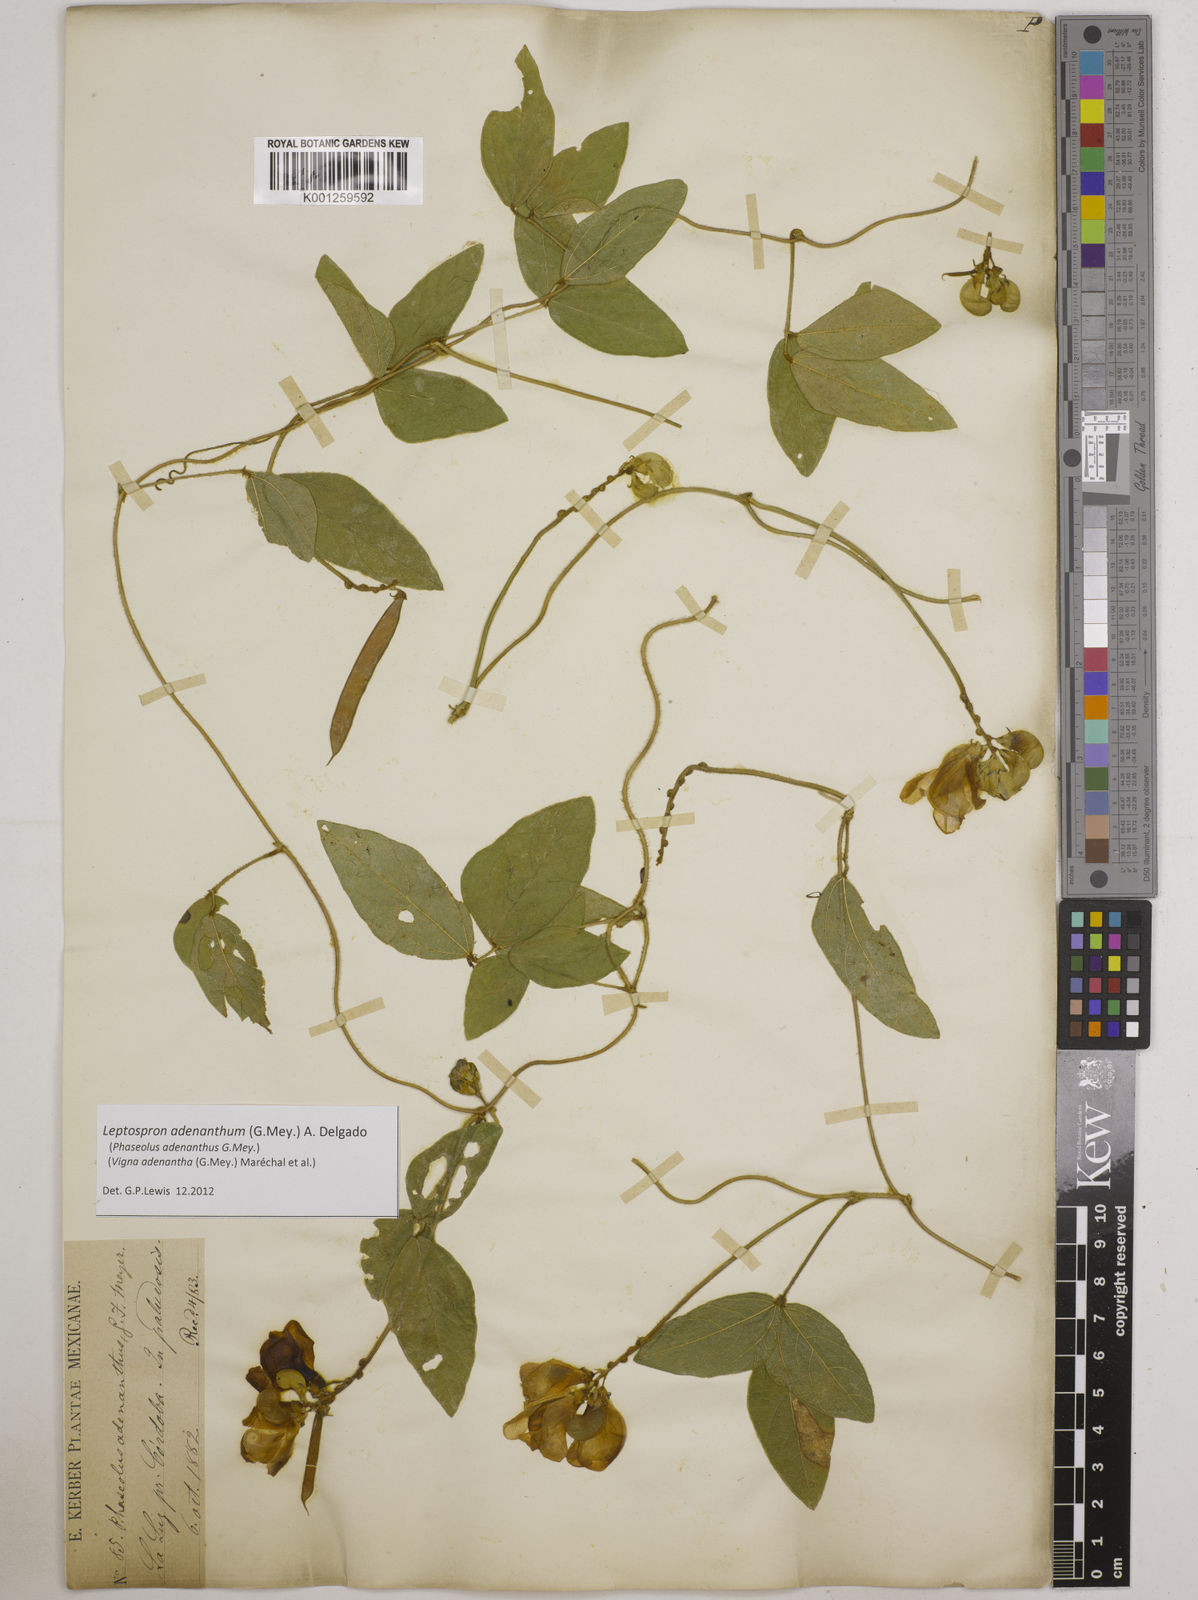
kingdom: Plantae
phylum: Tracheophyta
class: Magnoliopsida
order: Fabales
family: Fabaceae
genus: Leptospron
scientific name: Leptospron adenanthum
